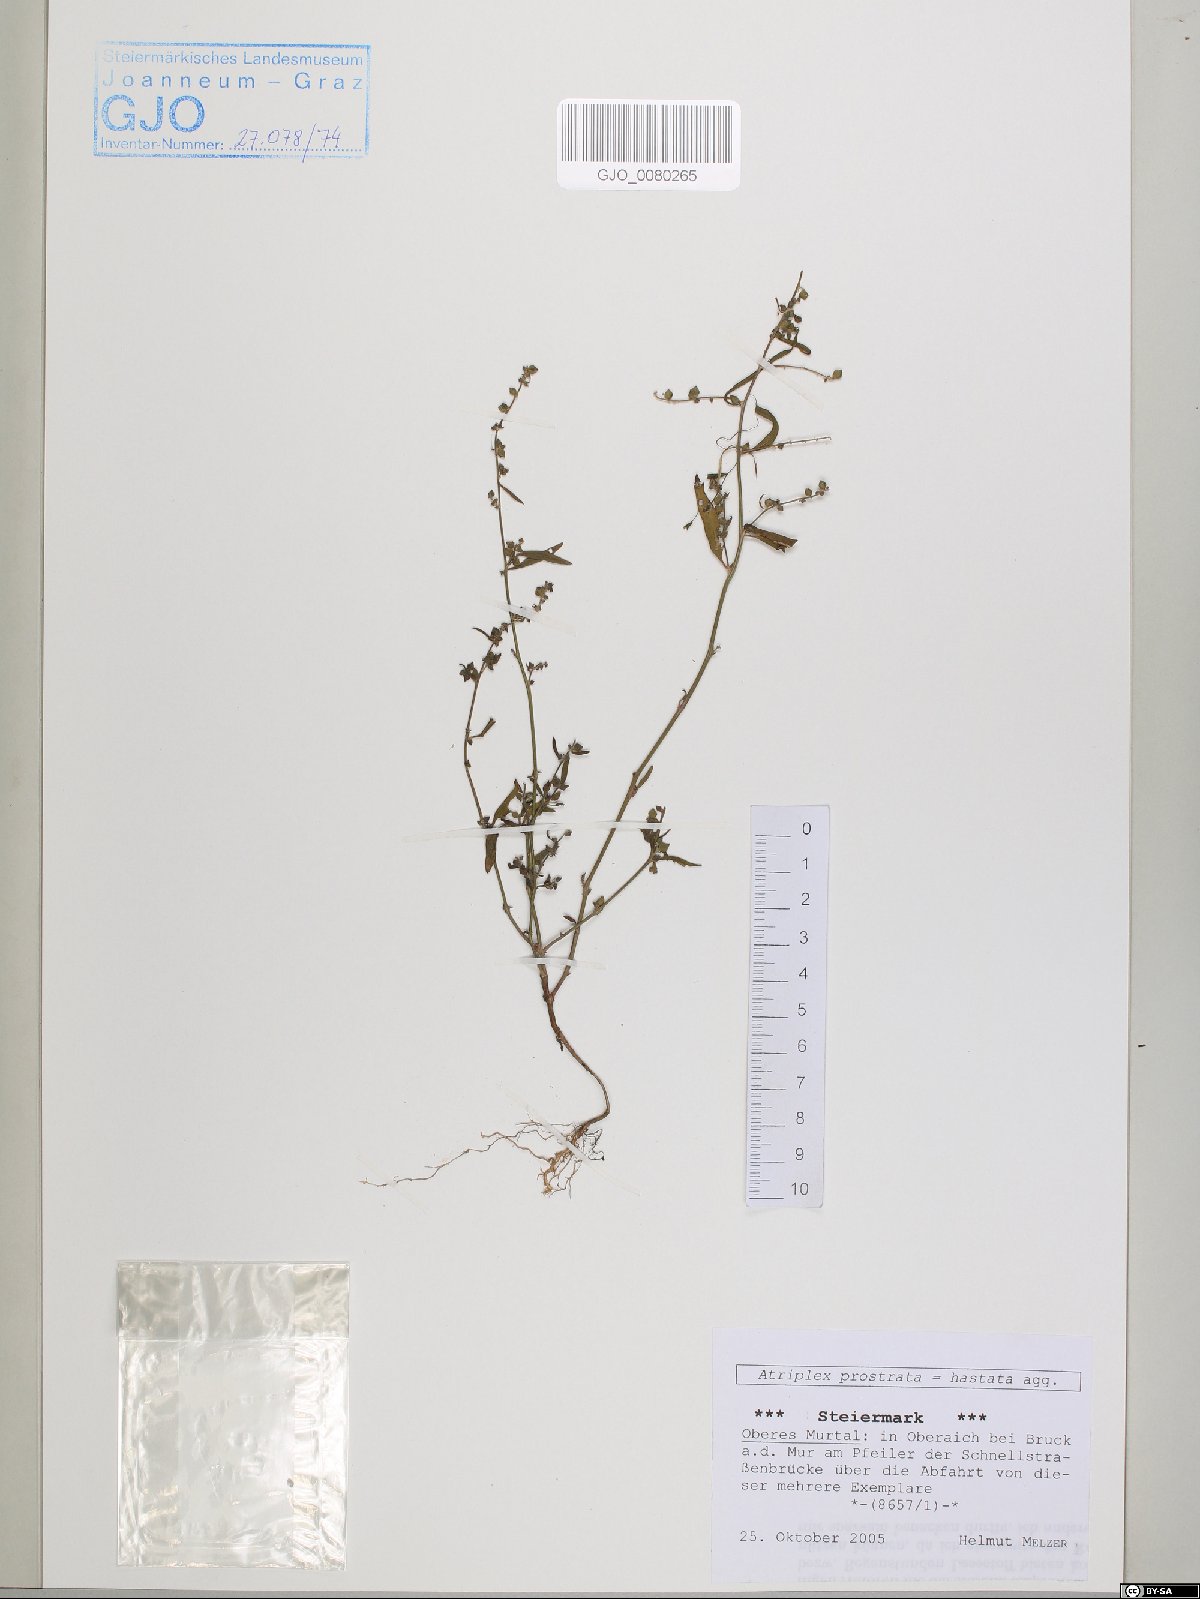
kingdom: Plantae
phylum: Tracheophyta
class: Magnoliopsida
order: Caryophyllales
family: Amaranthaceae
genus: Atriplex
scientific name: Atriplex prostrata
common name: Spear-leaved orache
